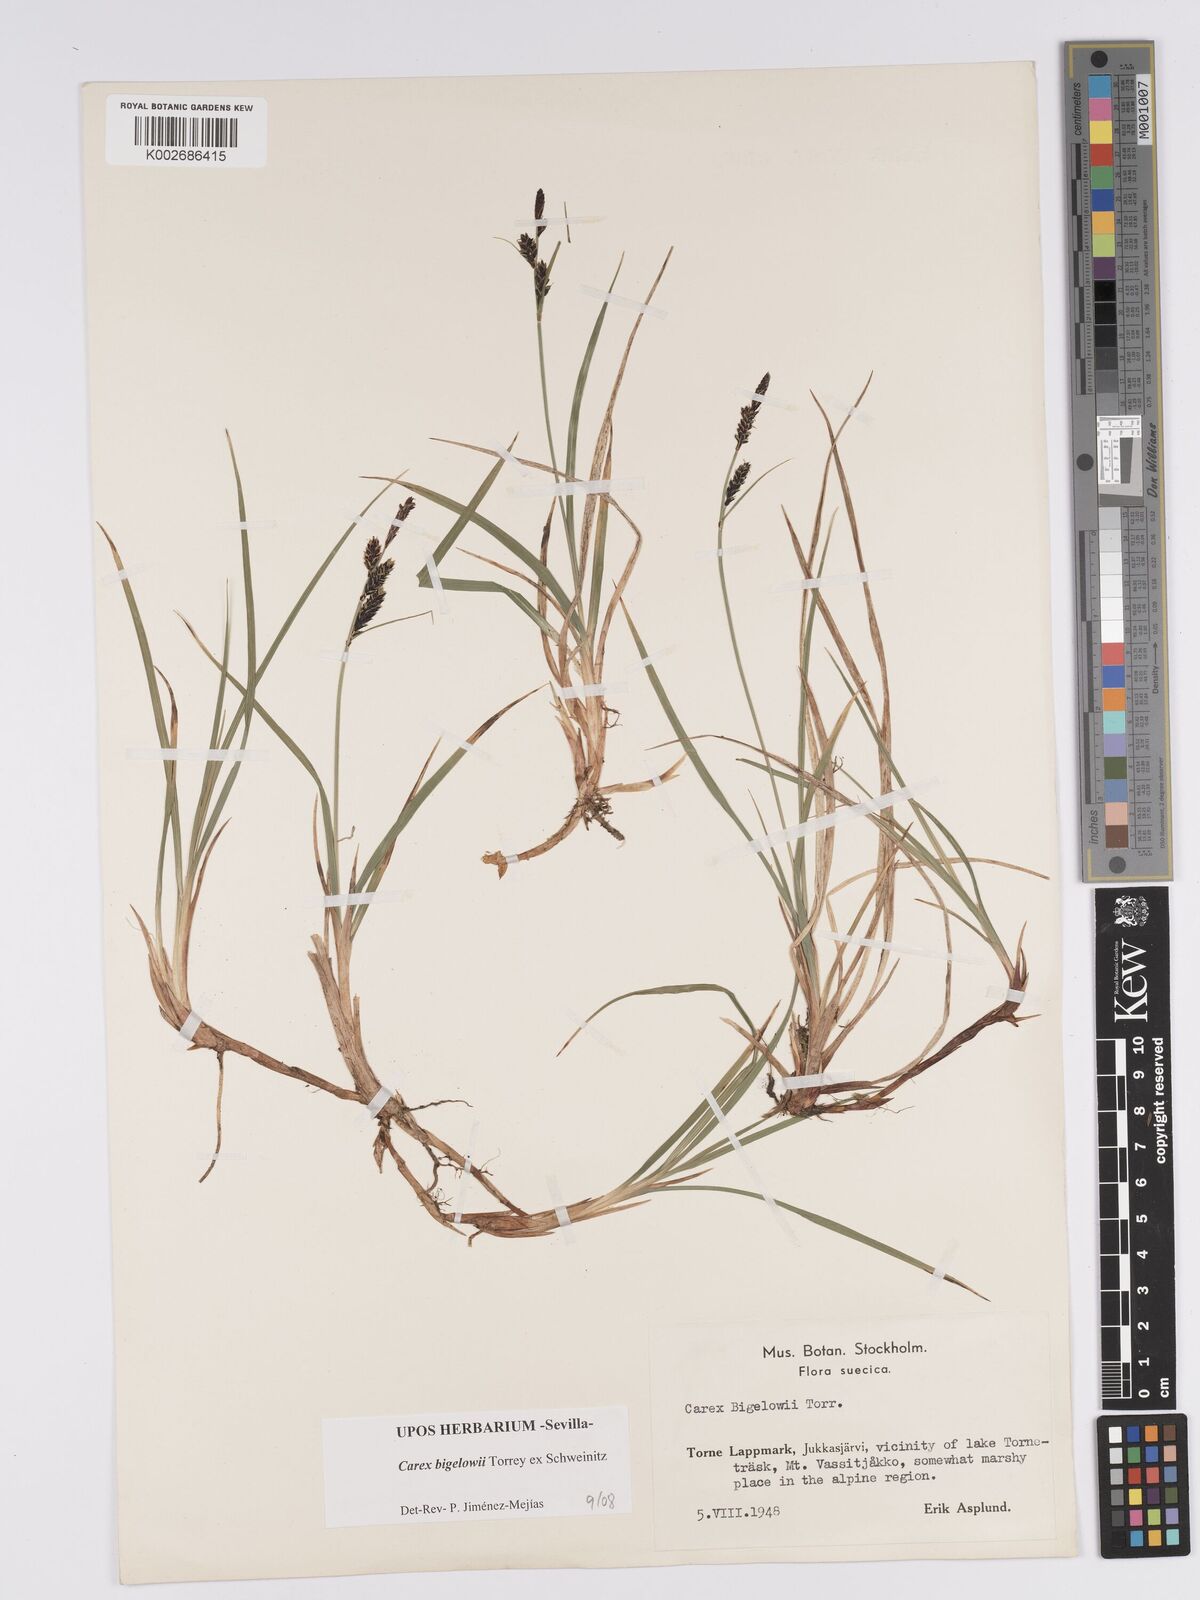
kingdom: Plantae
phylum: Tracheophyta
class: Liliopsida
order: Poales
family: Cyperaceae
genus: Carex
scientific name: Carex bigelowii
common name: Stiff sedge
